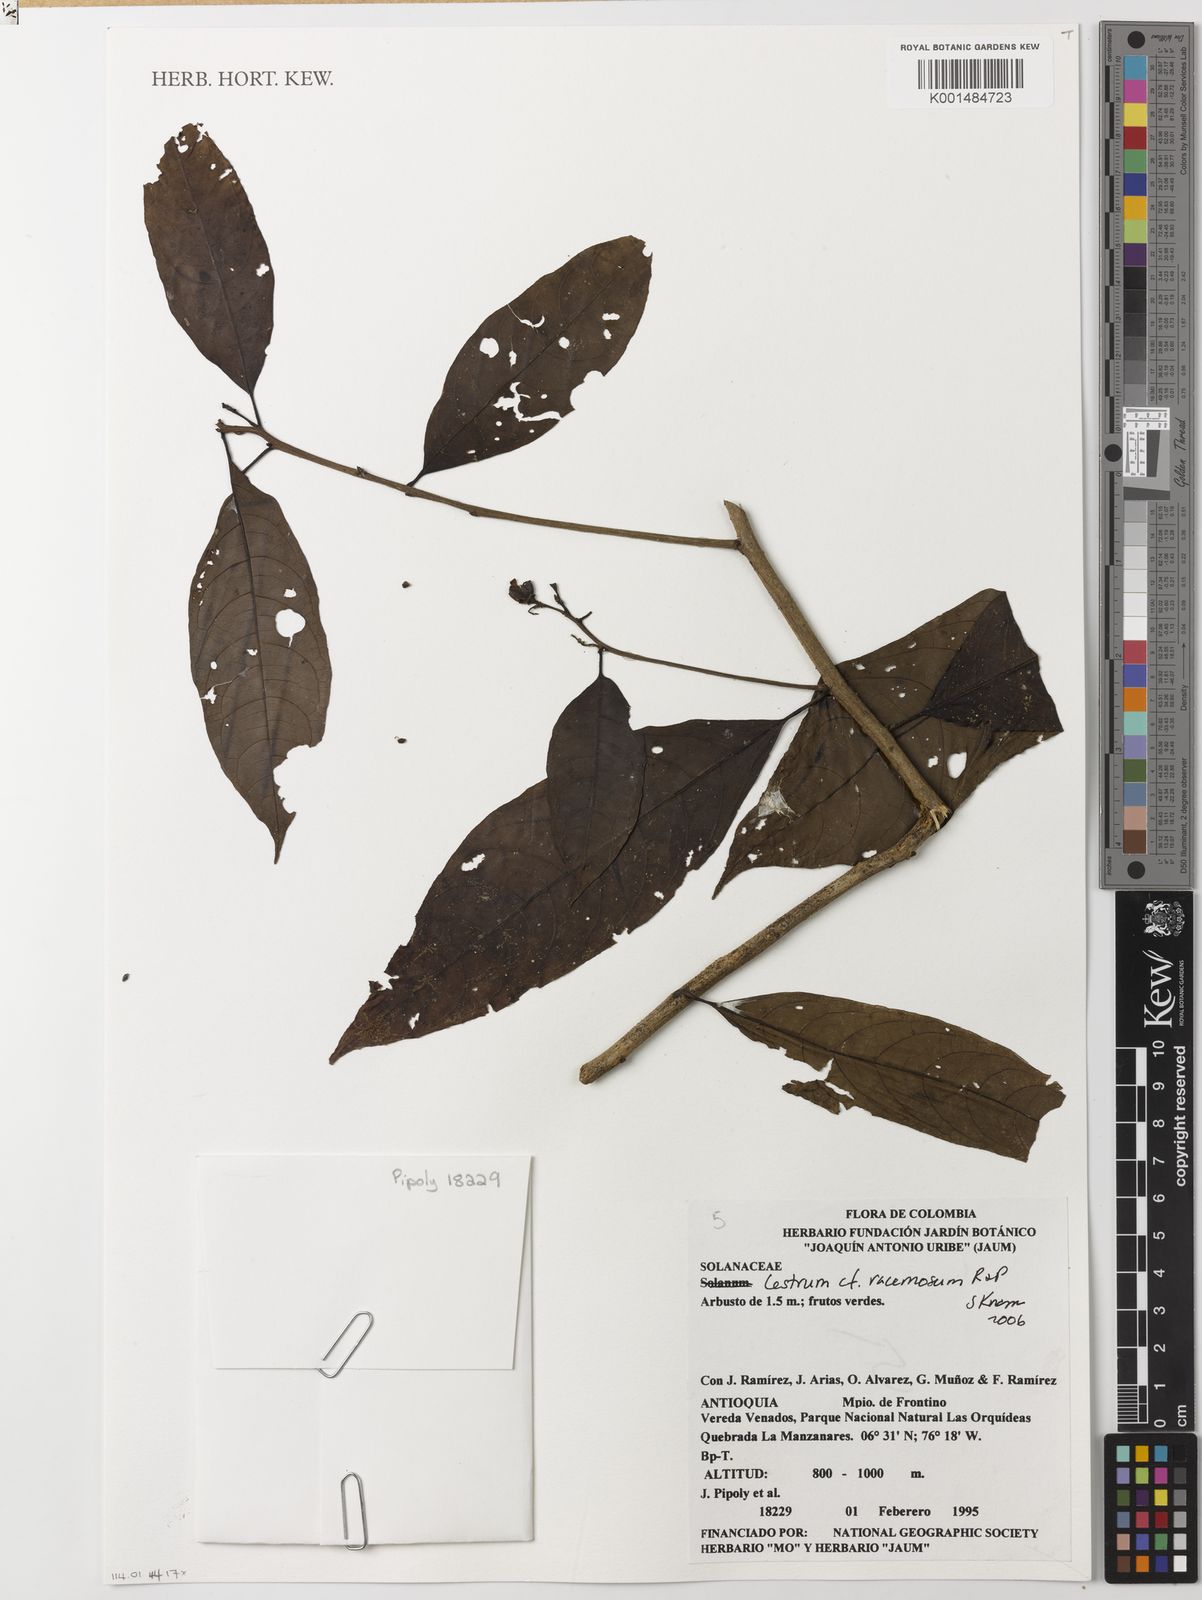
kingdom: Plantae
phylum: Tracheophyta
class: Magnoliopsida
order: Solanales
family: Solanaceae
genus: Cestrum
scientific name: Cestrum racemosum
